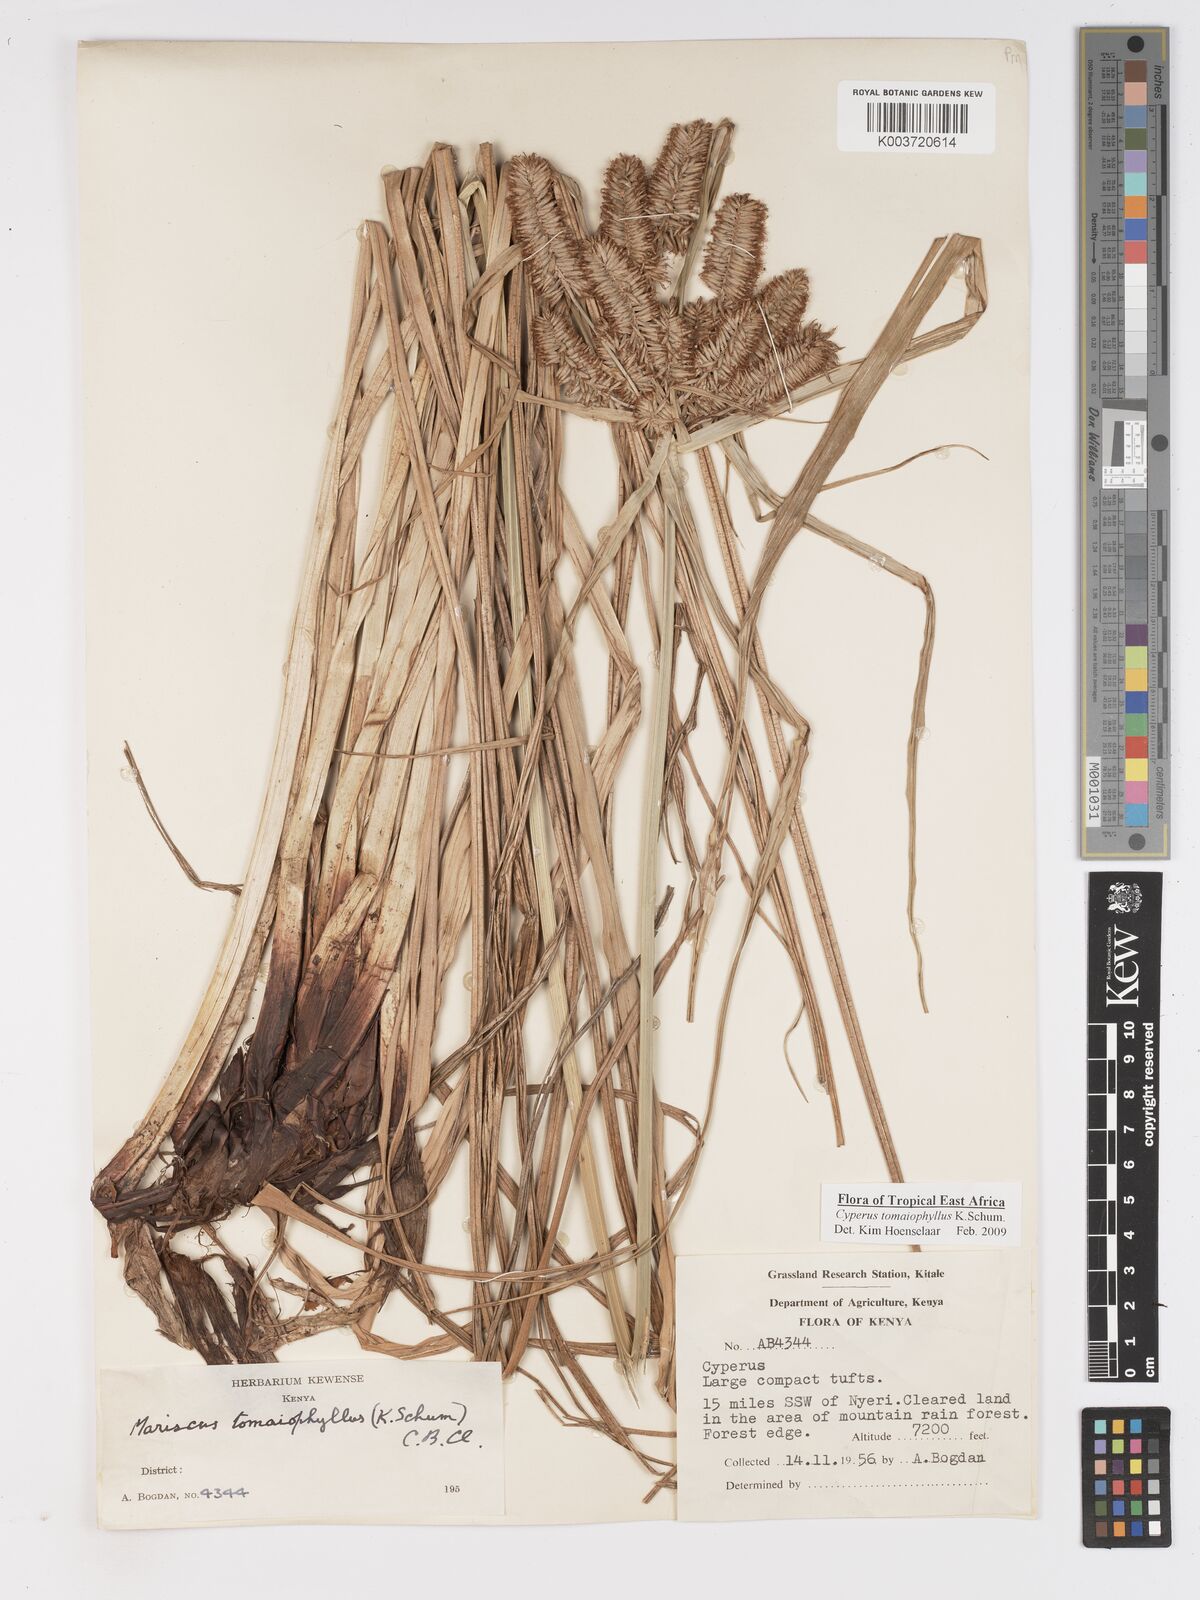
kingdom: Plantae
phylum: Tracheophyta
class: Liliopsida
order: Poales
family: Cyperaceae
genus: Cyperus
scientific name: Cyperus tomaiophyllus
